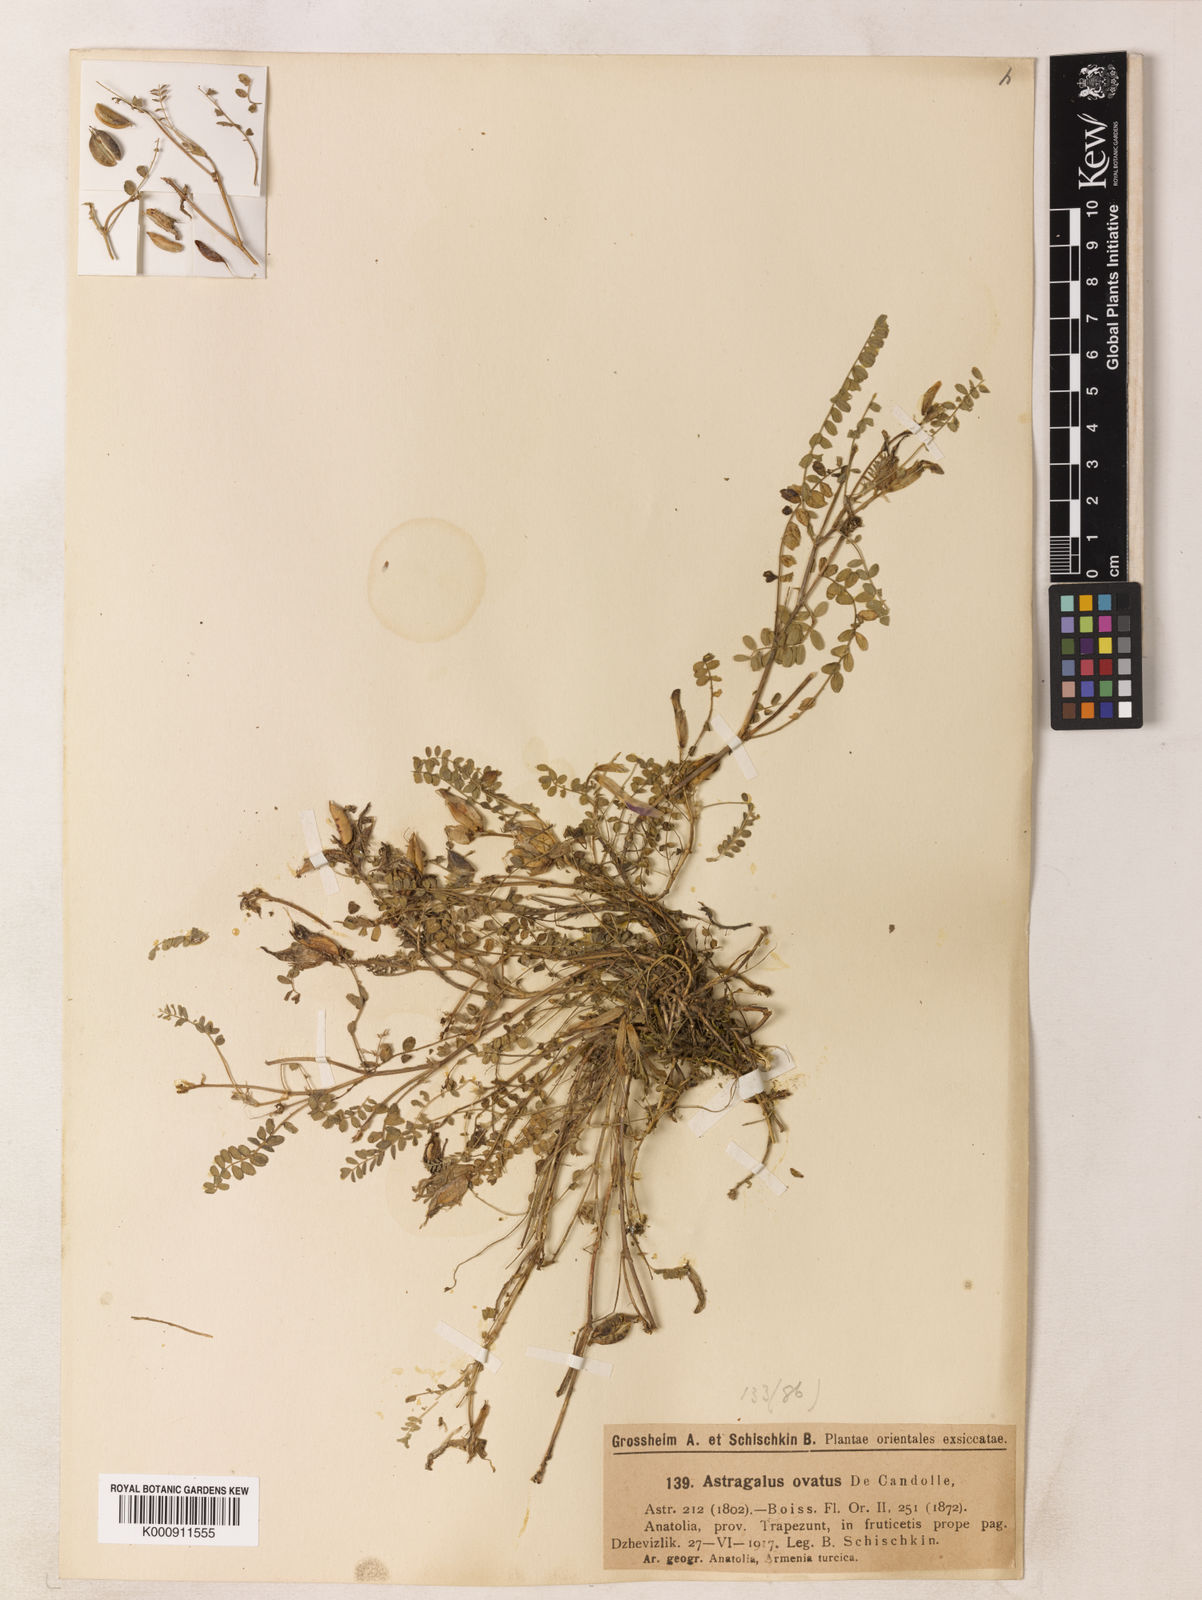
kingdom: Plantae
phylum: Tracheophyta
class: Magnoliopsida
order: Fabales
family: Fabaceae
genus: Astragalus
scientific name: Astragalus viridissimus
